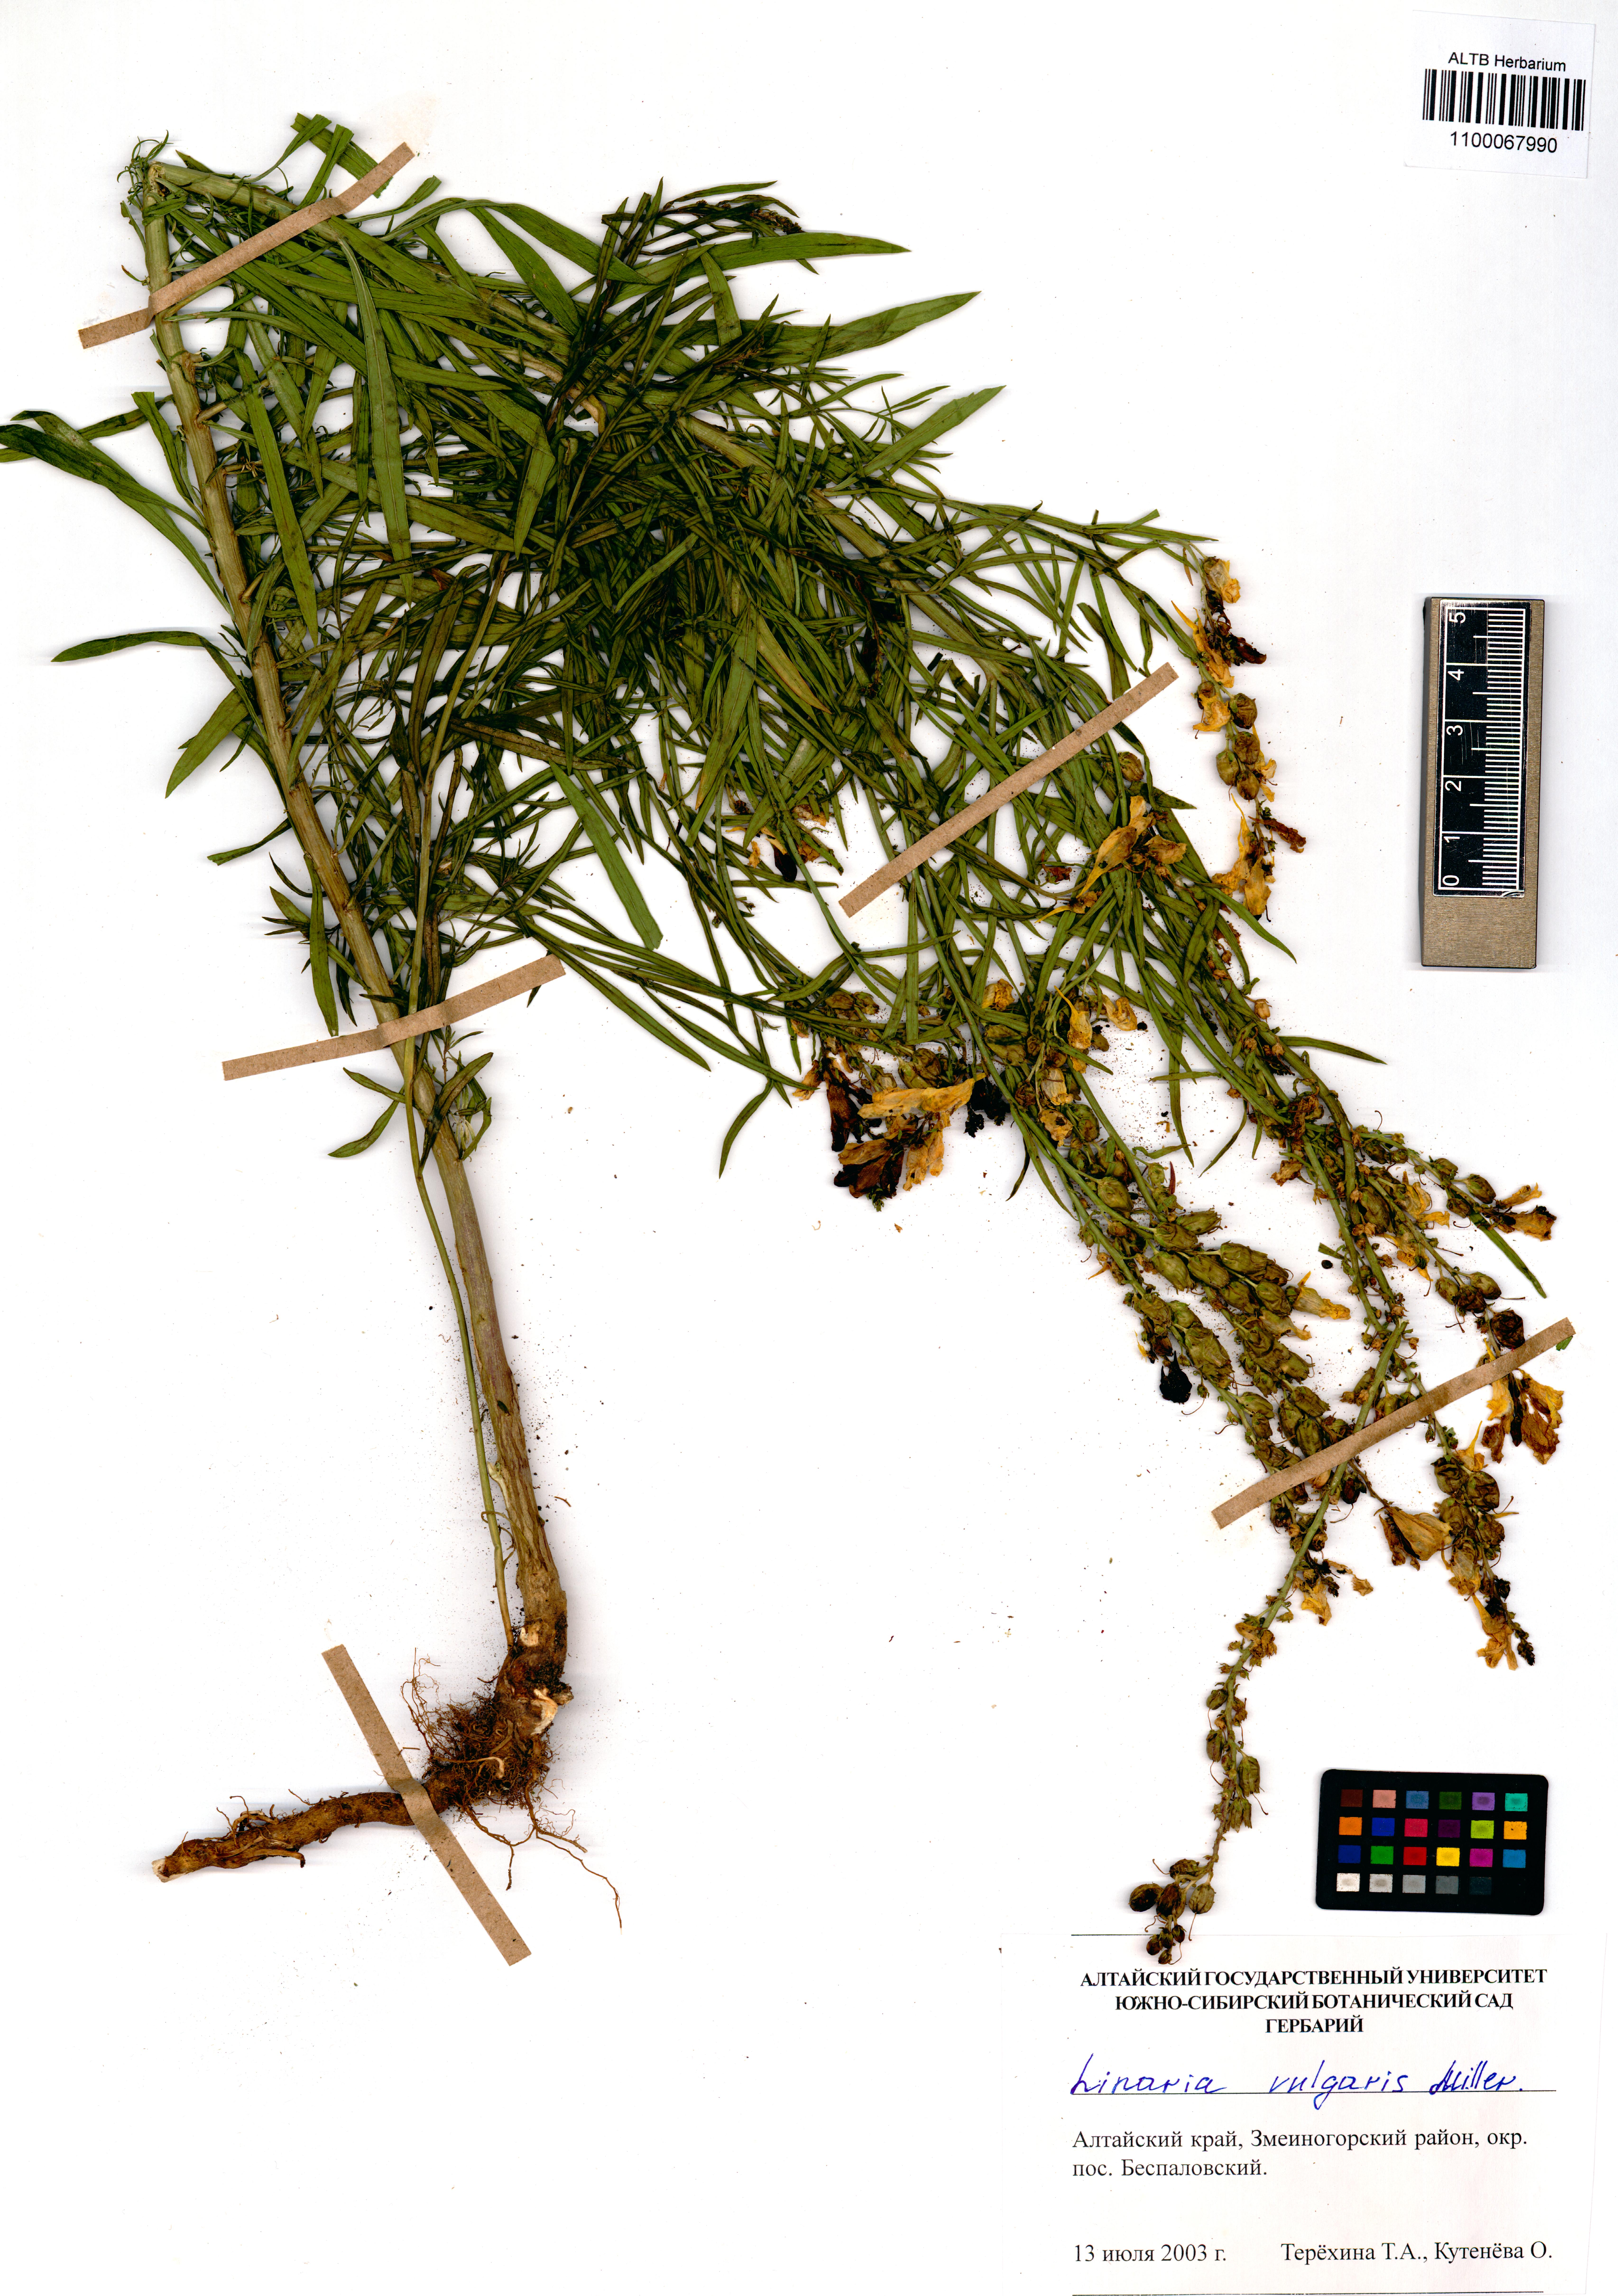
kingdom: Plantae
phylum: Tracheophyta
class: Magnoliopsida
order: Lamiales
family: Plantaginaceae
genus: Linaria
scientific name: Linaria vulgaris
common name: Butter and eggs
